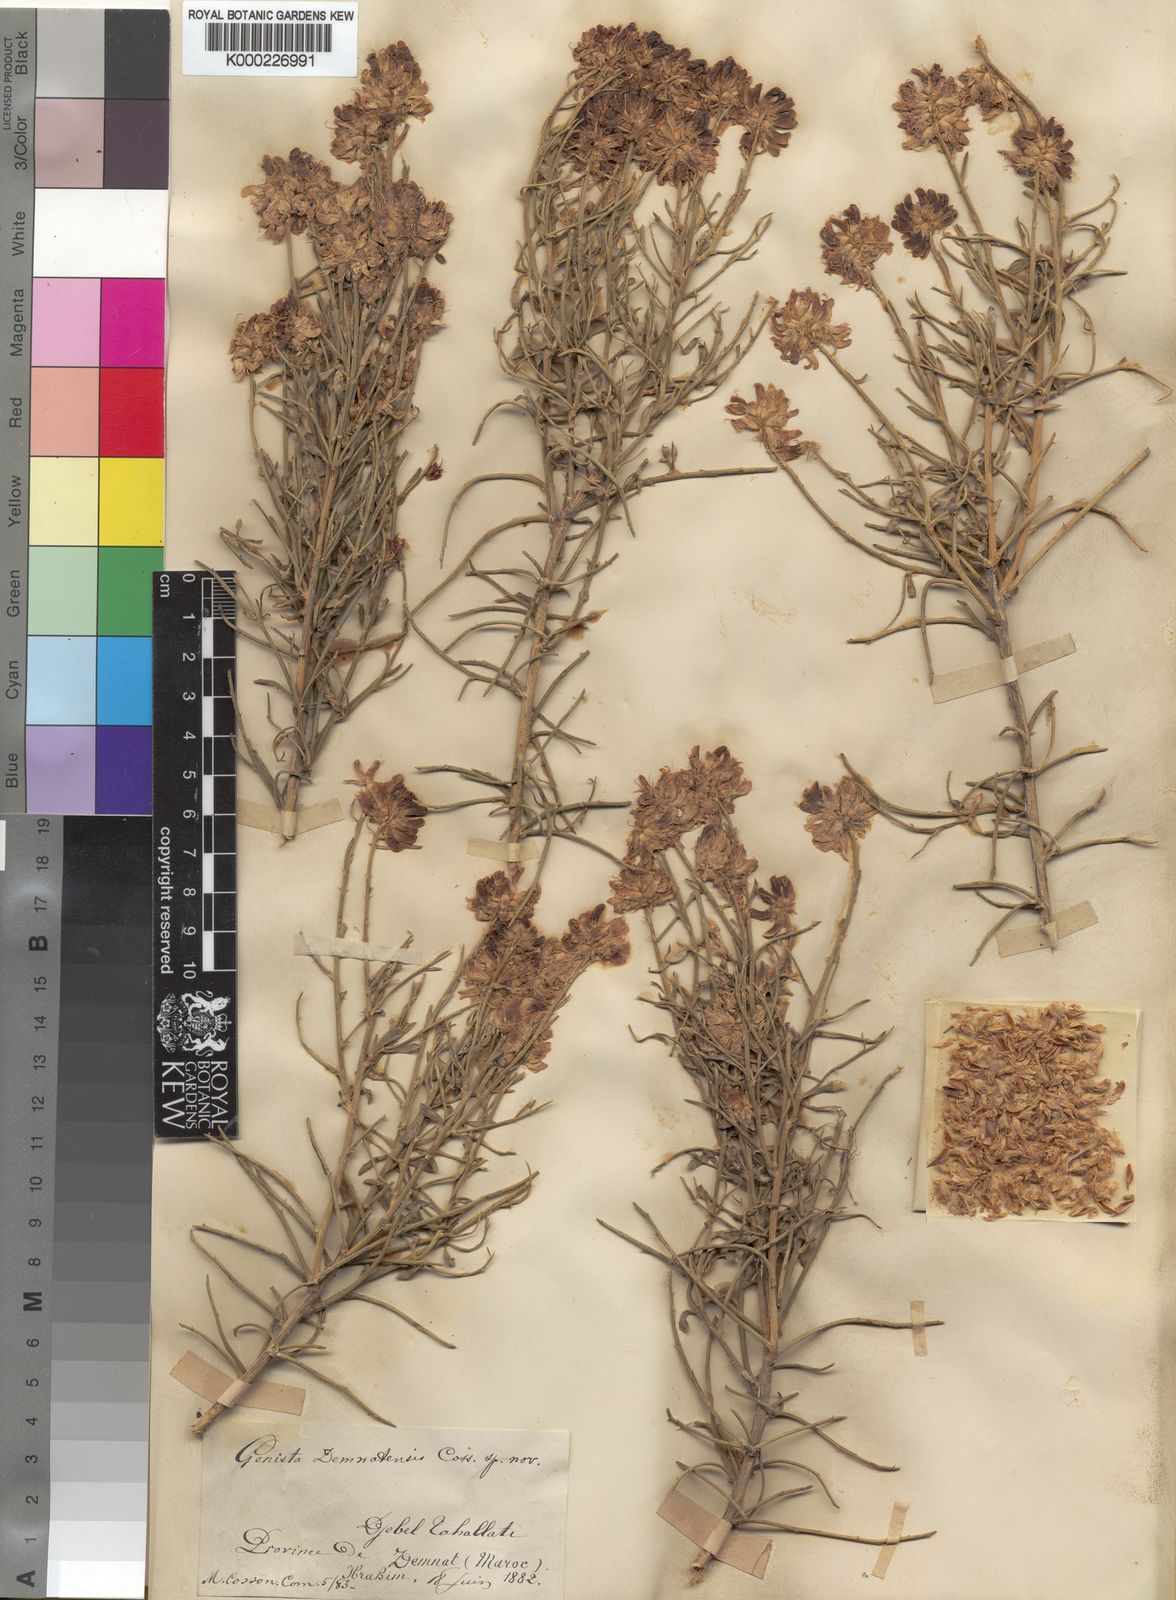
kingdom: Plantae
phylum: Tracheophyta
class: Magnoliopsida
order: Fabales
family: Fabaceae
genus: Genista
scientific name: Genista
